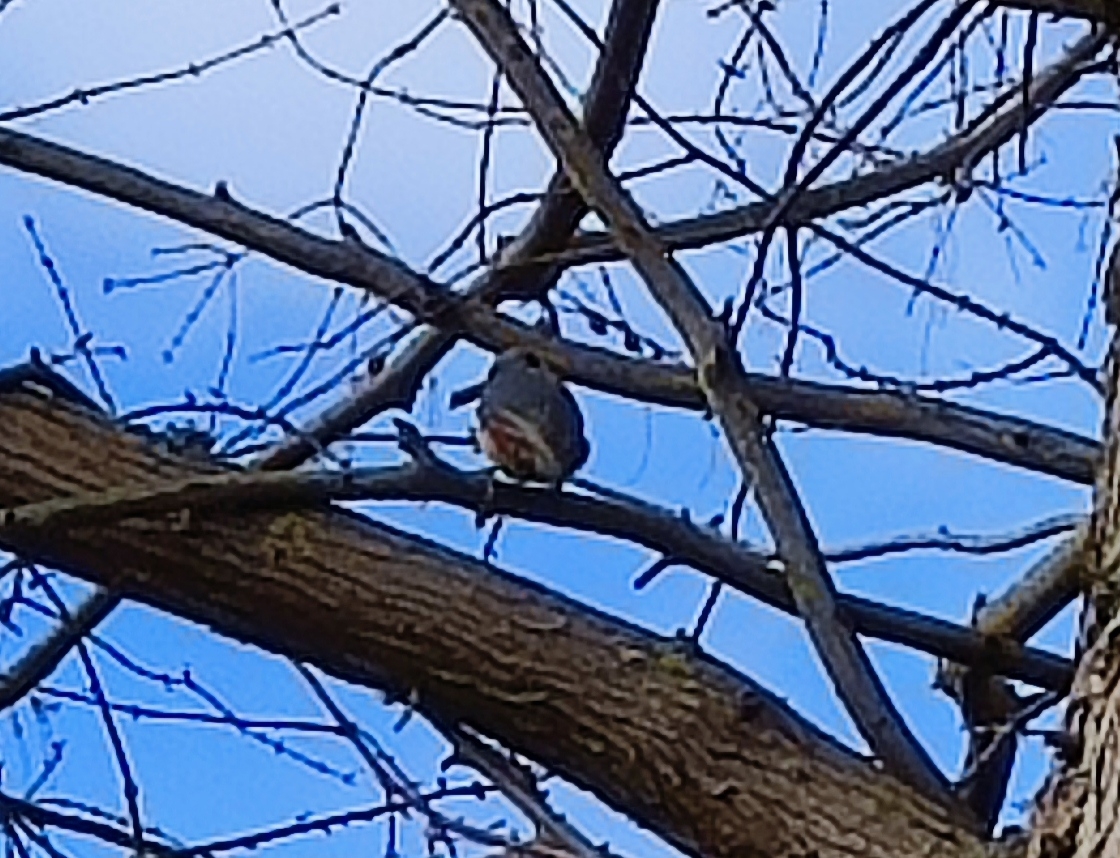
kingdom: Animalia
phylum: Chordata
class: Aves
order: Passeriformes
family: Sittidae
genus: Sitta
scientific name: Sitta europaea
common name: Spætmejse
